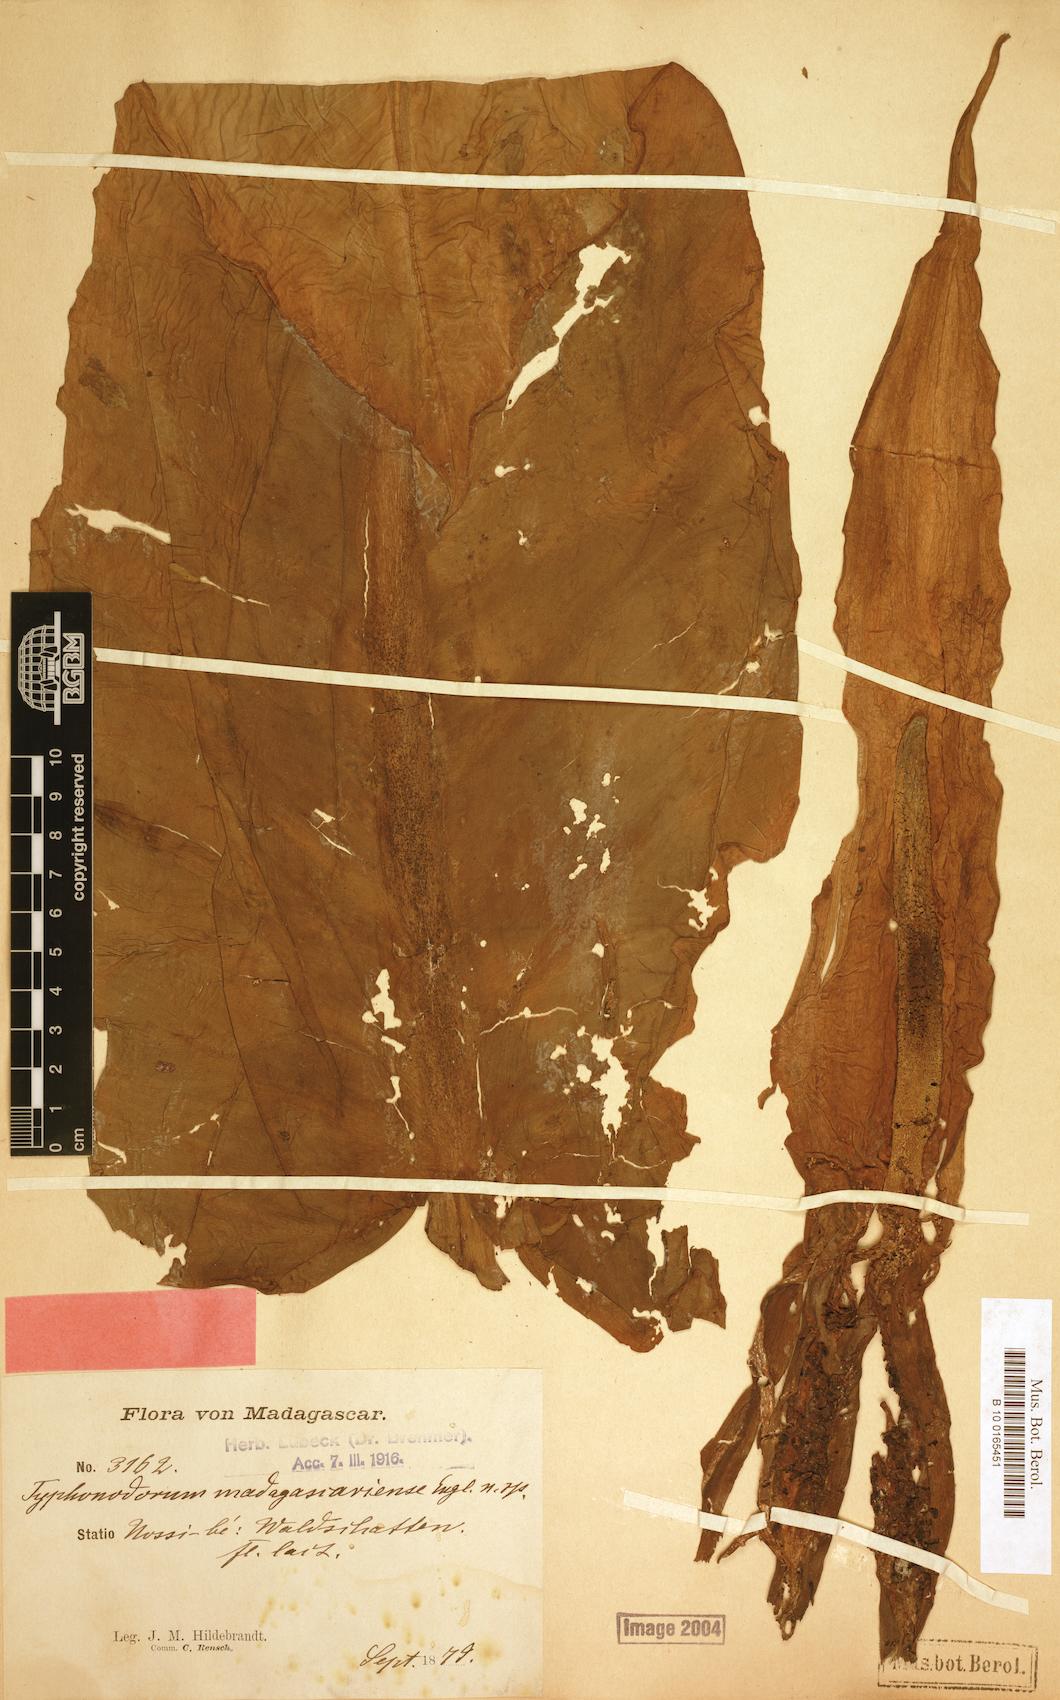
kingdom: Plantae
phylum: Tracheophyta
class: Liliopsida
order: Alismatales
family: Araceae
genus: Typhonodorum
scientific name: Typhonodorum lindleyanum
